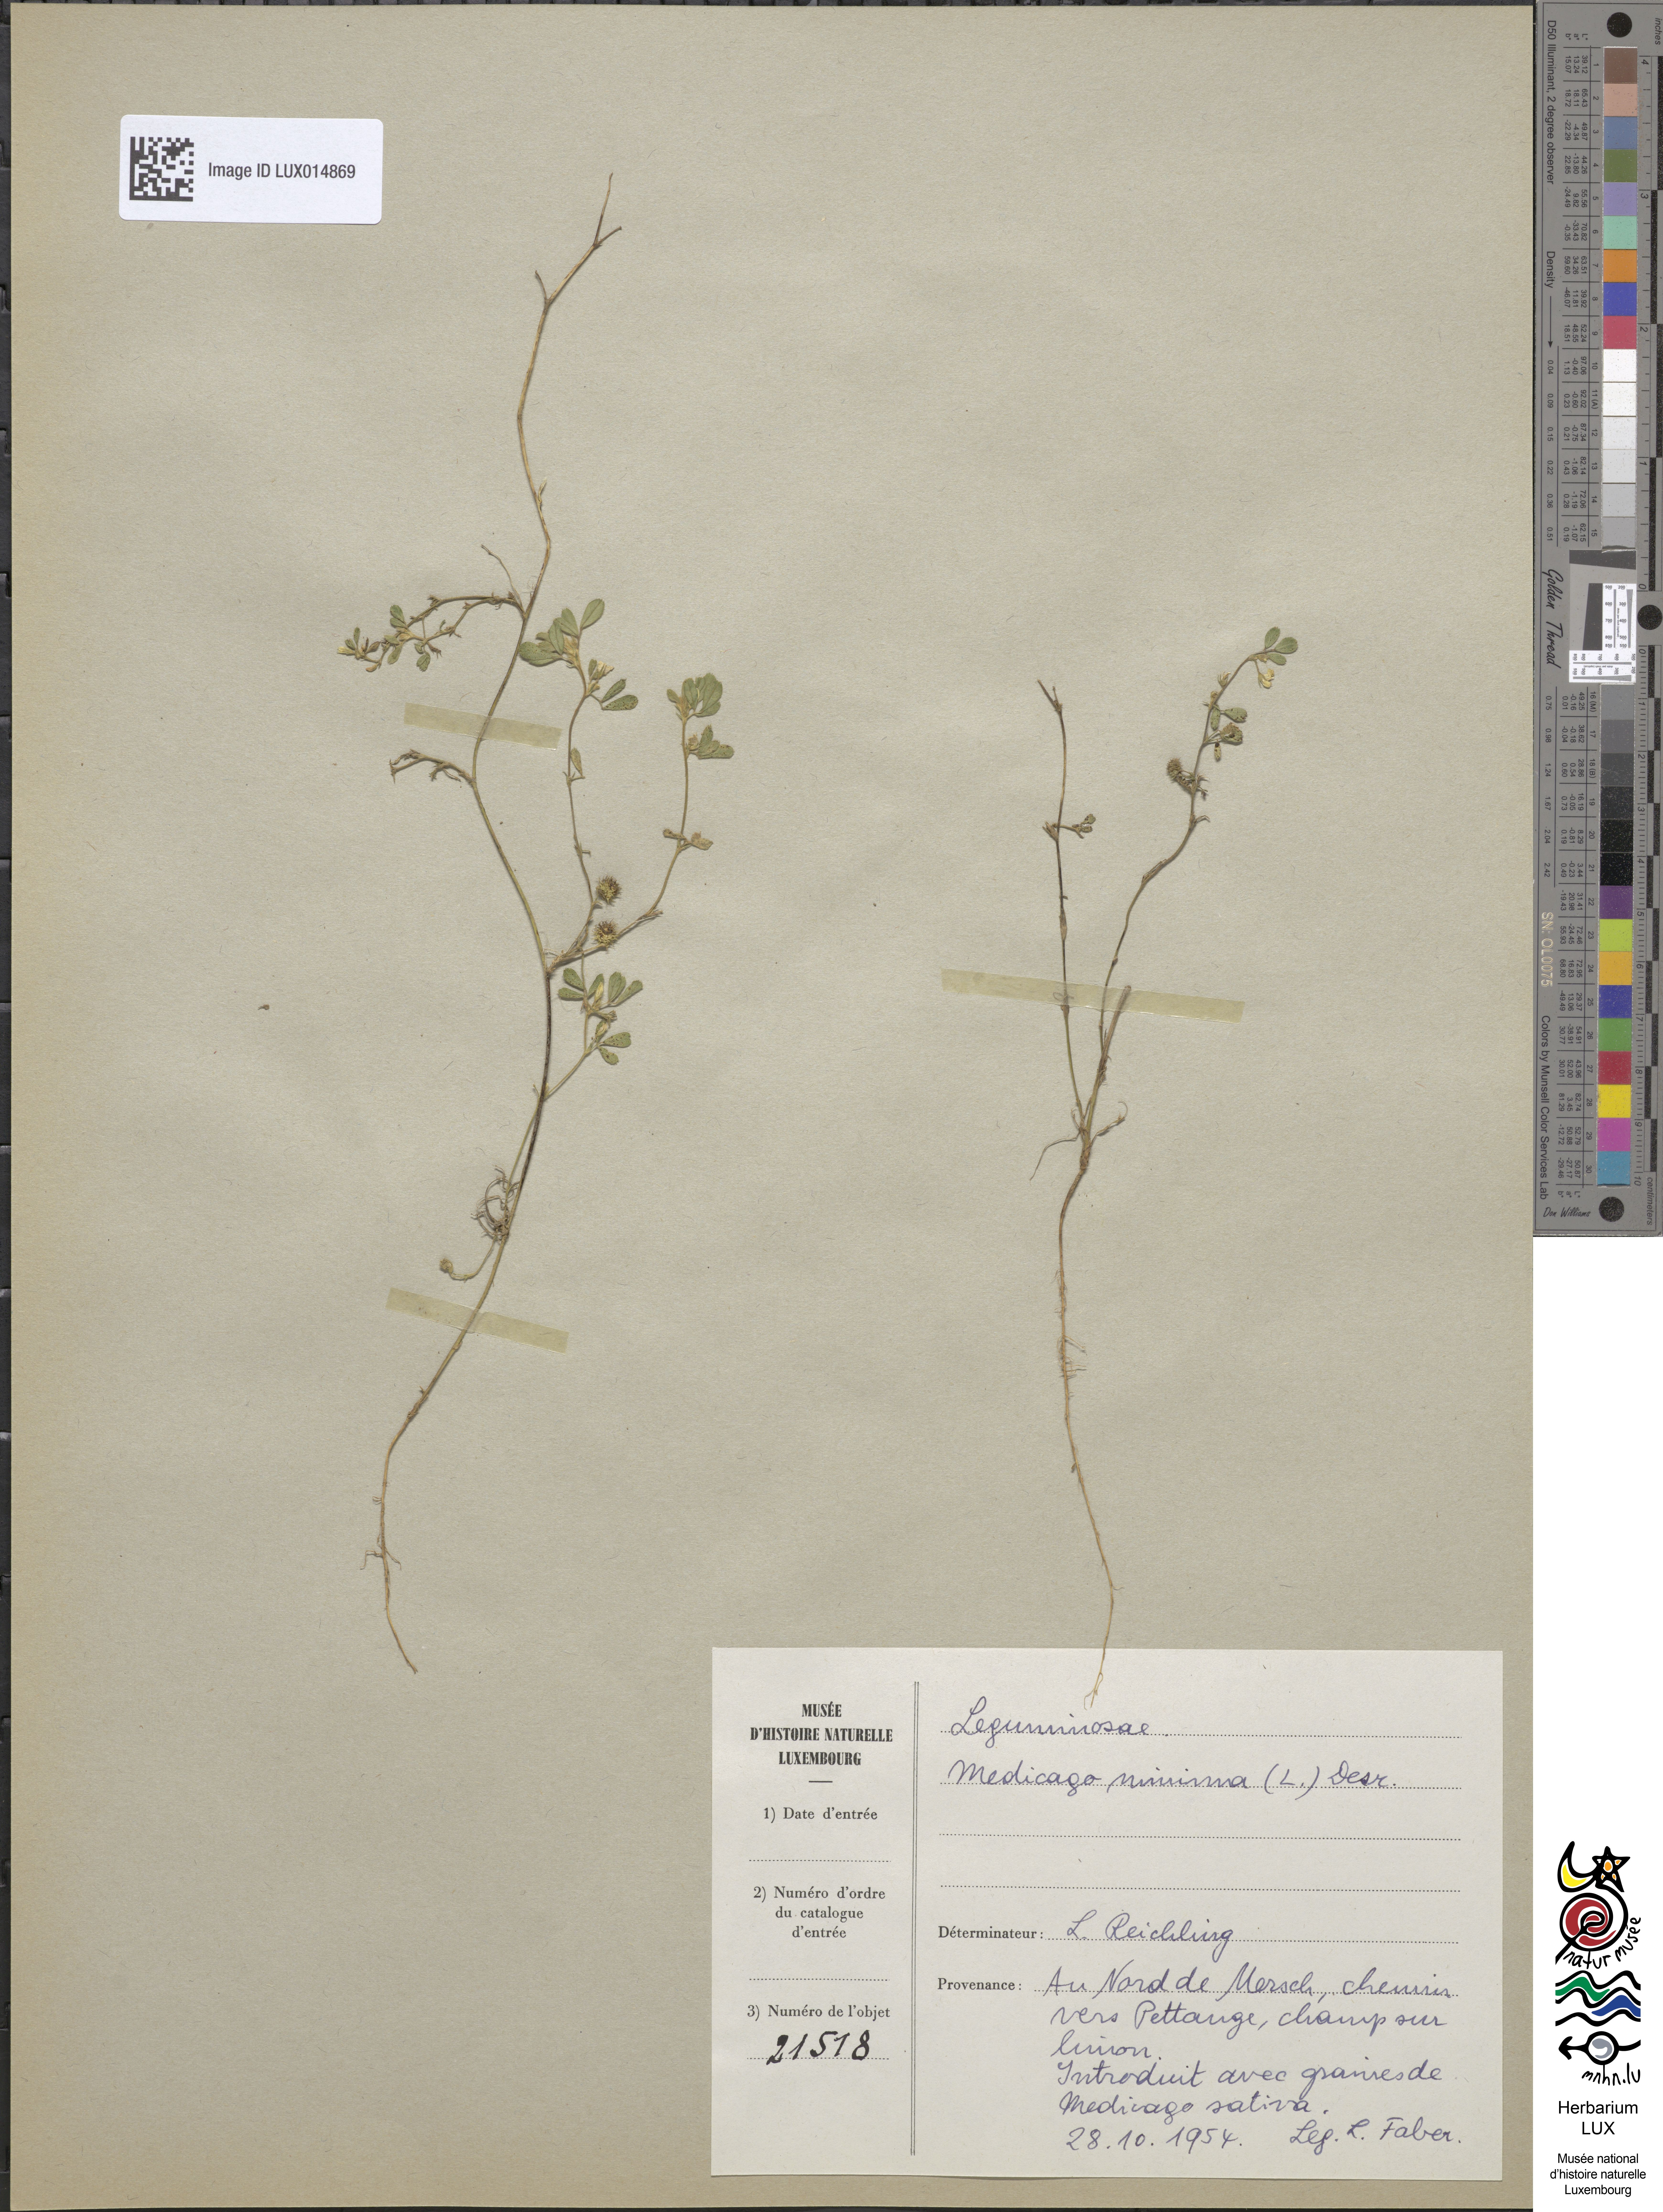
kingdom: Plantae
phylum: Tracheophyta
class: Magnoliopsida
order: Fabales
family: Fabaceae
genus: Medicago
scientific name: Medicago minima
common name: Little bur-clover
